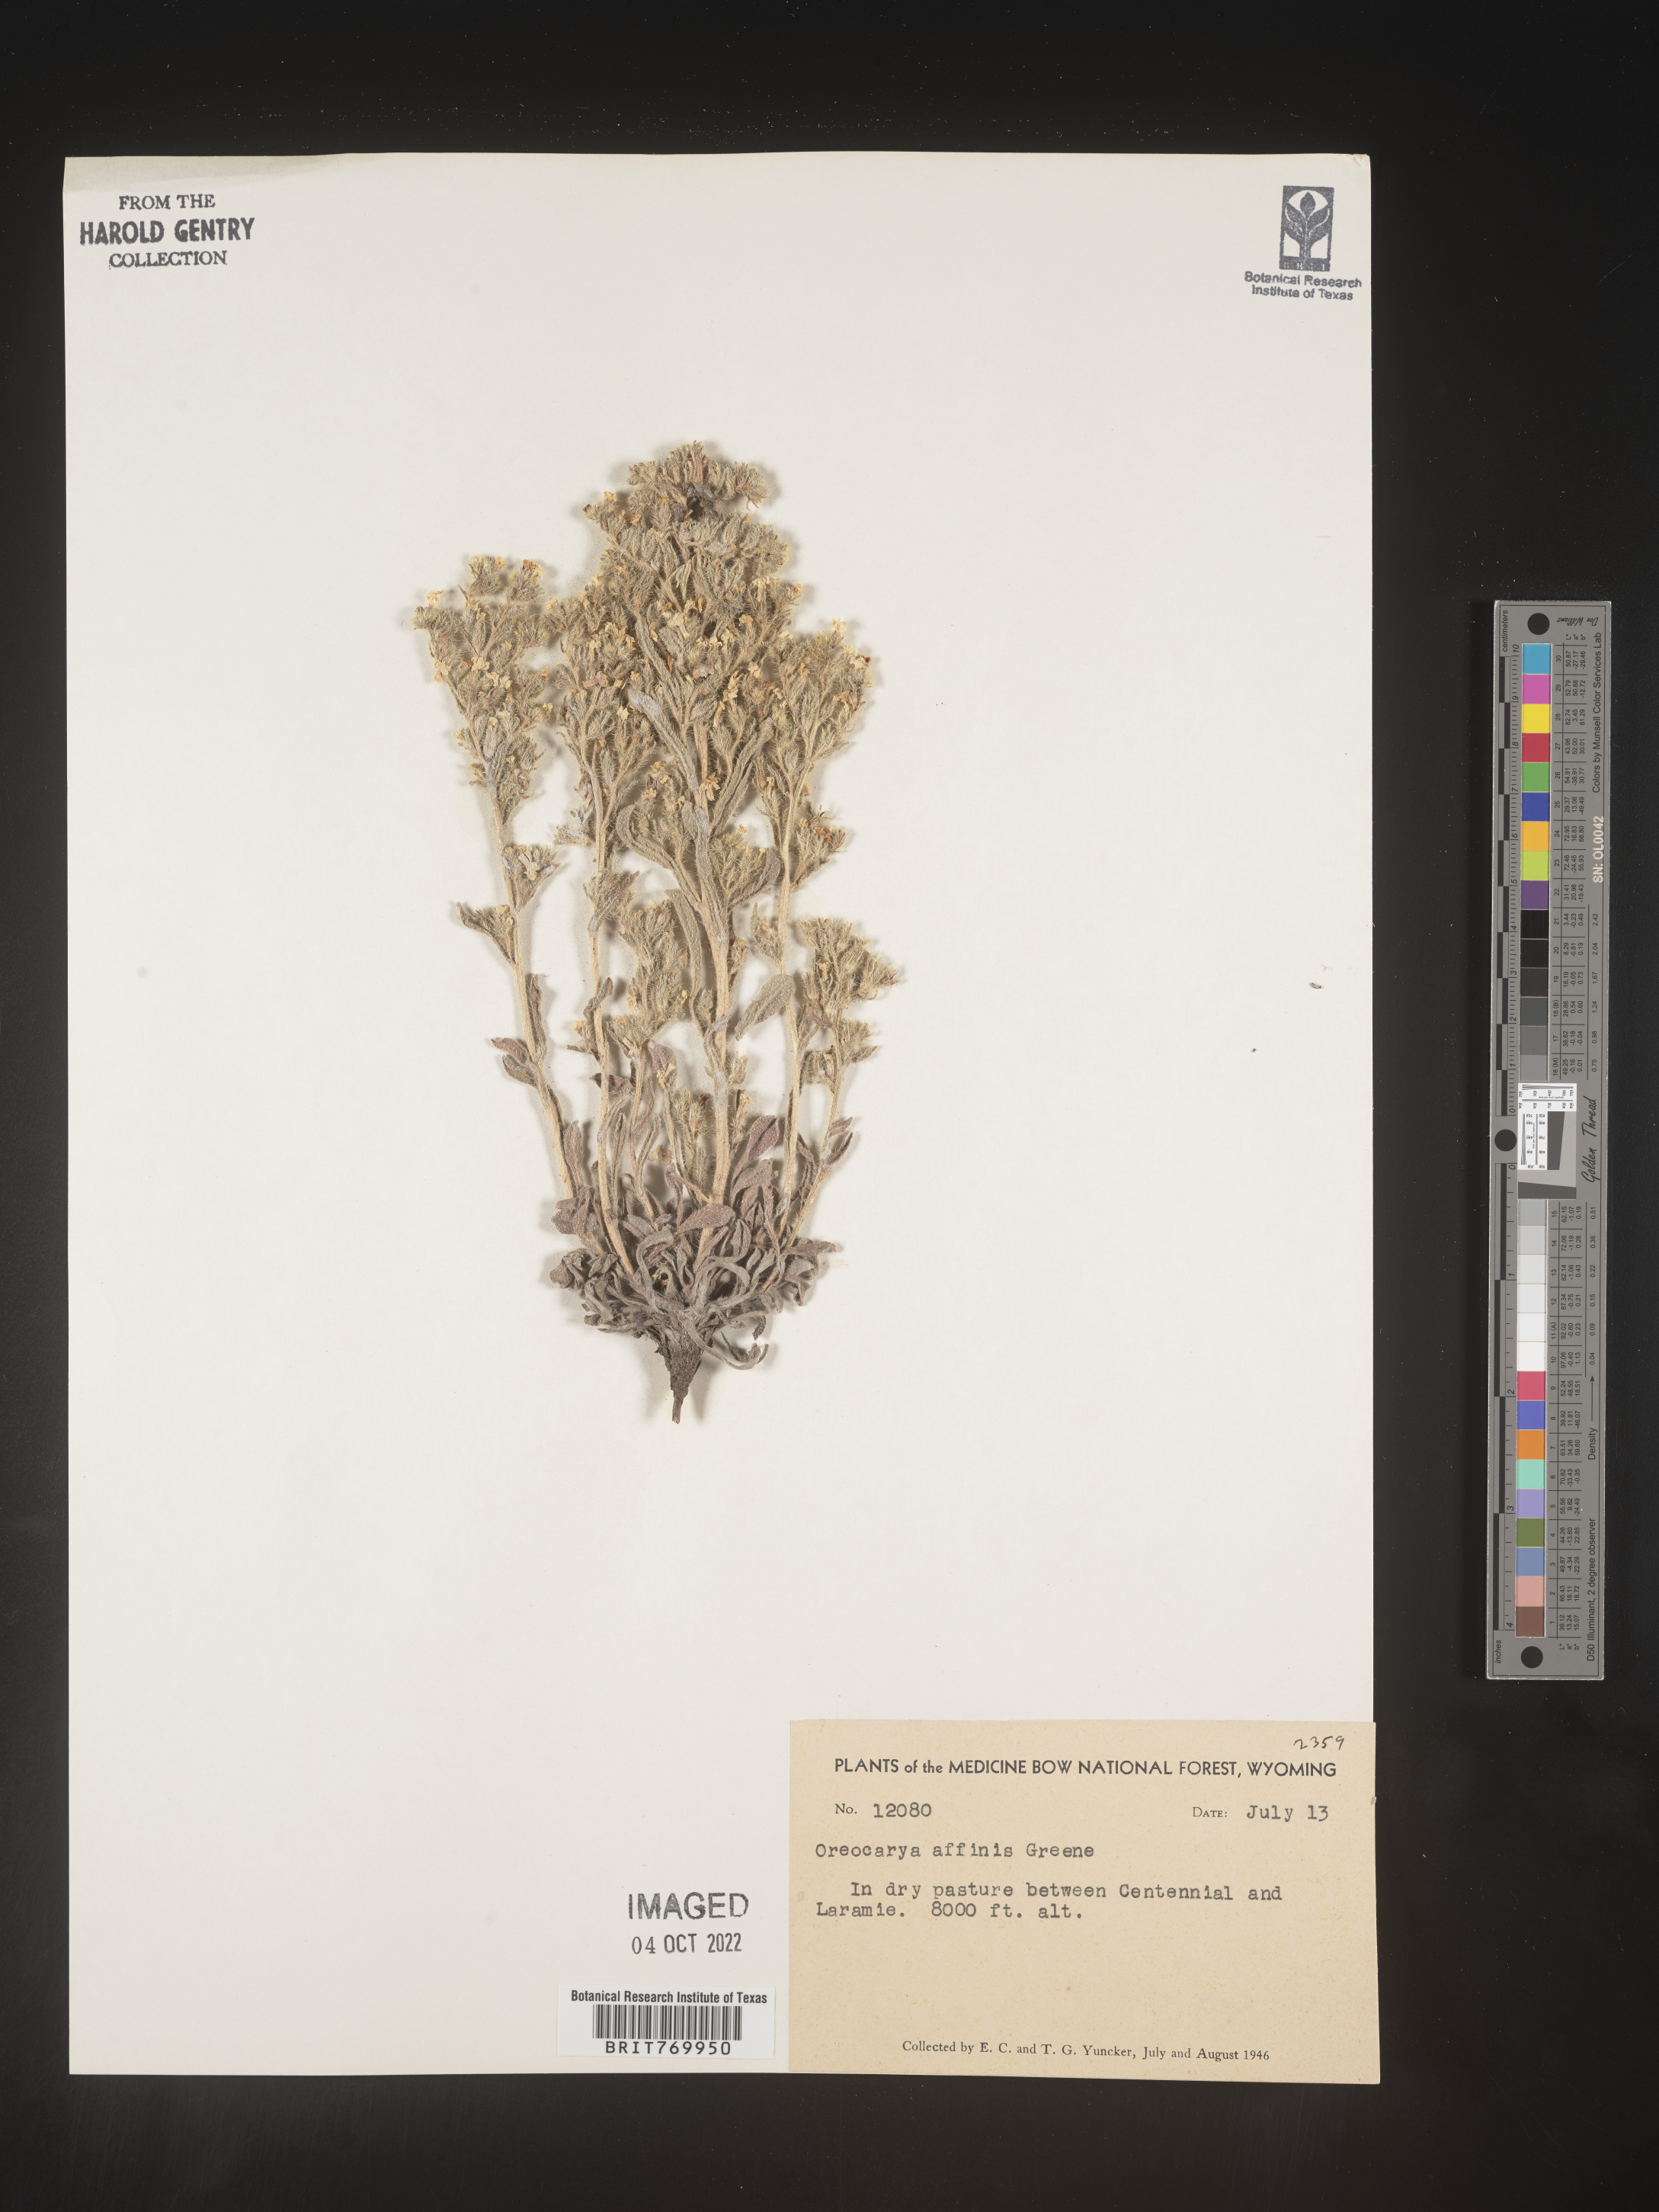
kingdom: Plantae
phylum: Tracheophyta
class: Magnoliopsida
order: Boraginales
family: Boraginaceae
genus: Oreocarya
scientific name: Oreocarya
